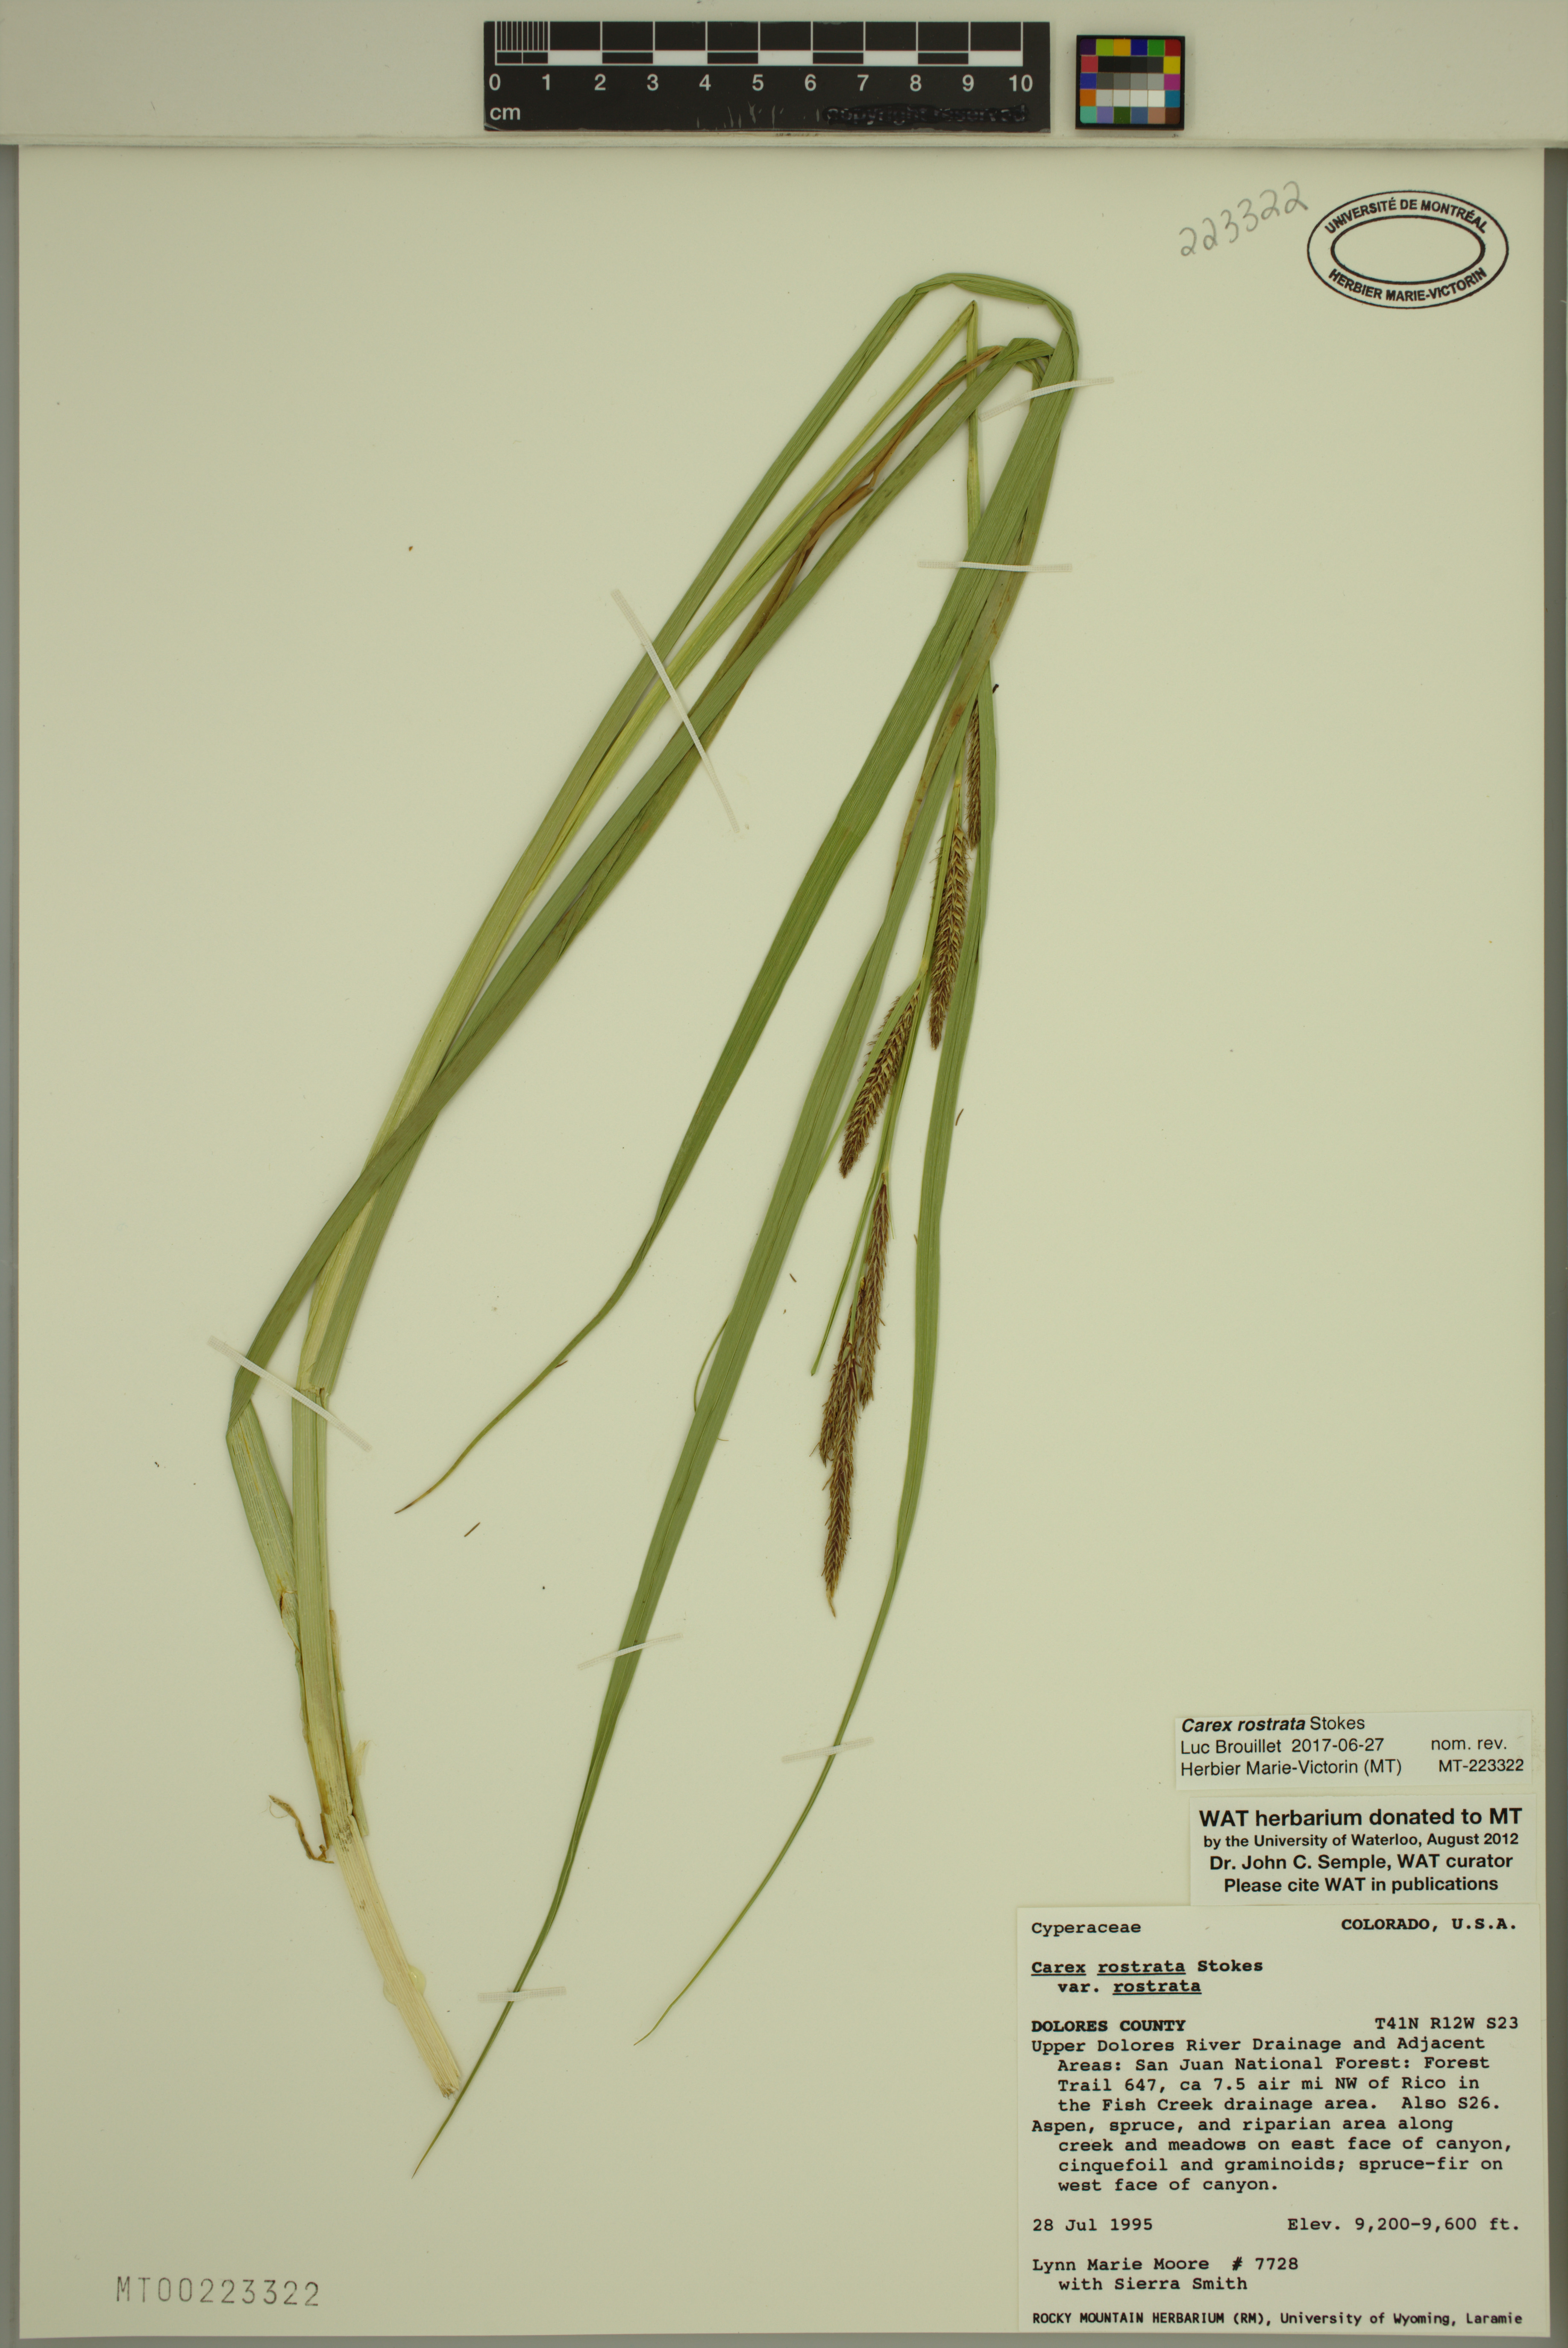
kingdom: Plantae
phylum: Tracheophyta
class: Liliopsida
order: Poales
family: Cyperaceae
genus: Carex
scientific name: Carex rostrata
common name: Bottle sedge
